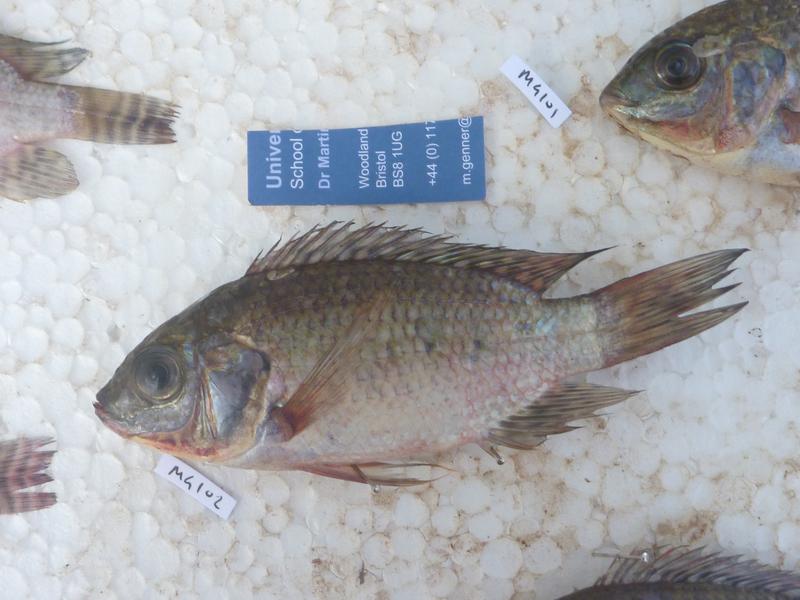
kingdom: Animalia
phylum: Chordata
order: Perciformes
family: Cichlidae
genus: Oreochromis
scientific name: Oreochromis leucostictus
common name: Blue spotted tilapia
